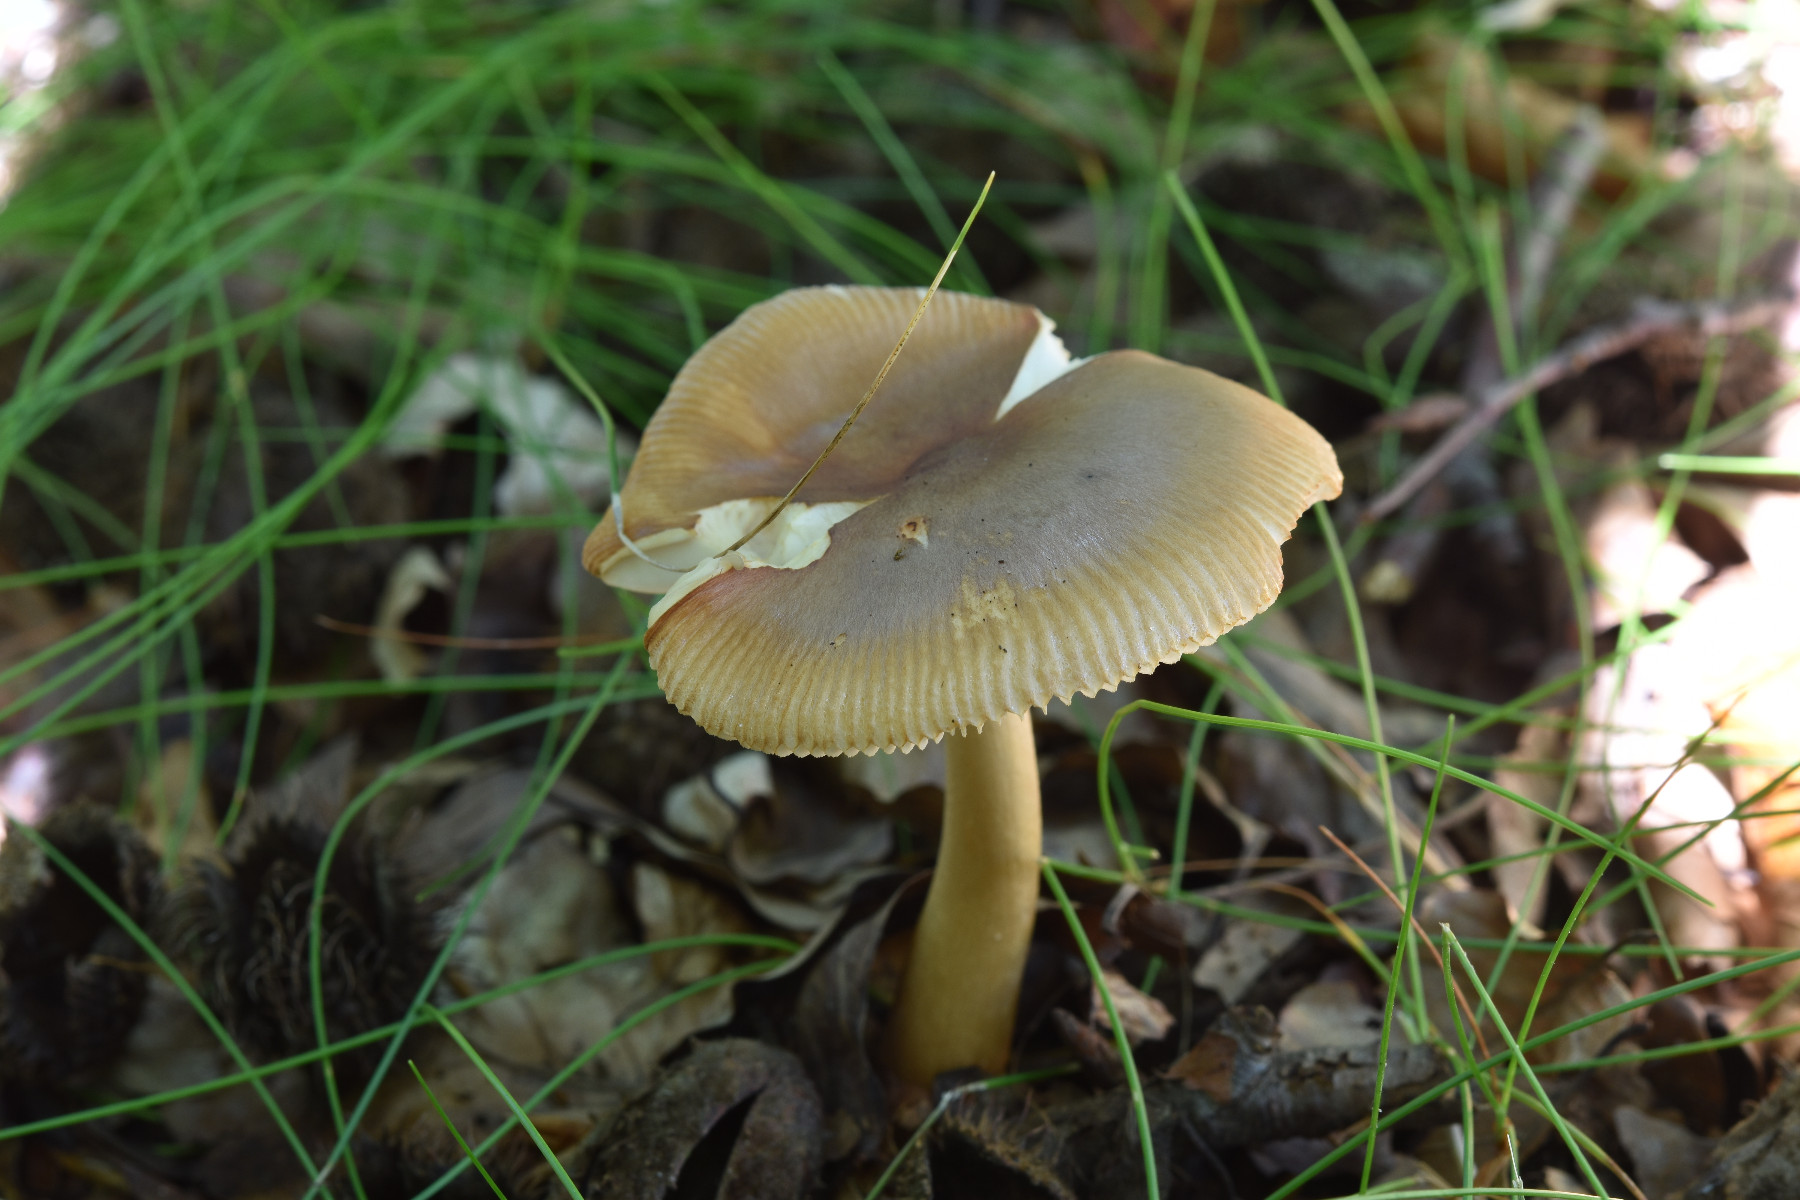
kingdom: Fungi
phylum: Basidiomycota
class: Agaricomycetes
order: Agaricales
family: Amanitaceae
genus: Amanita
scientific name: Amanita fulva
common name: brun kam-fluesvamp
